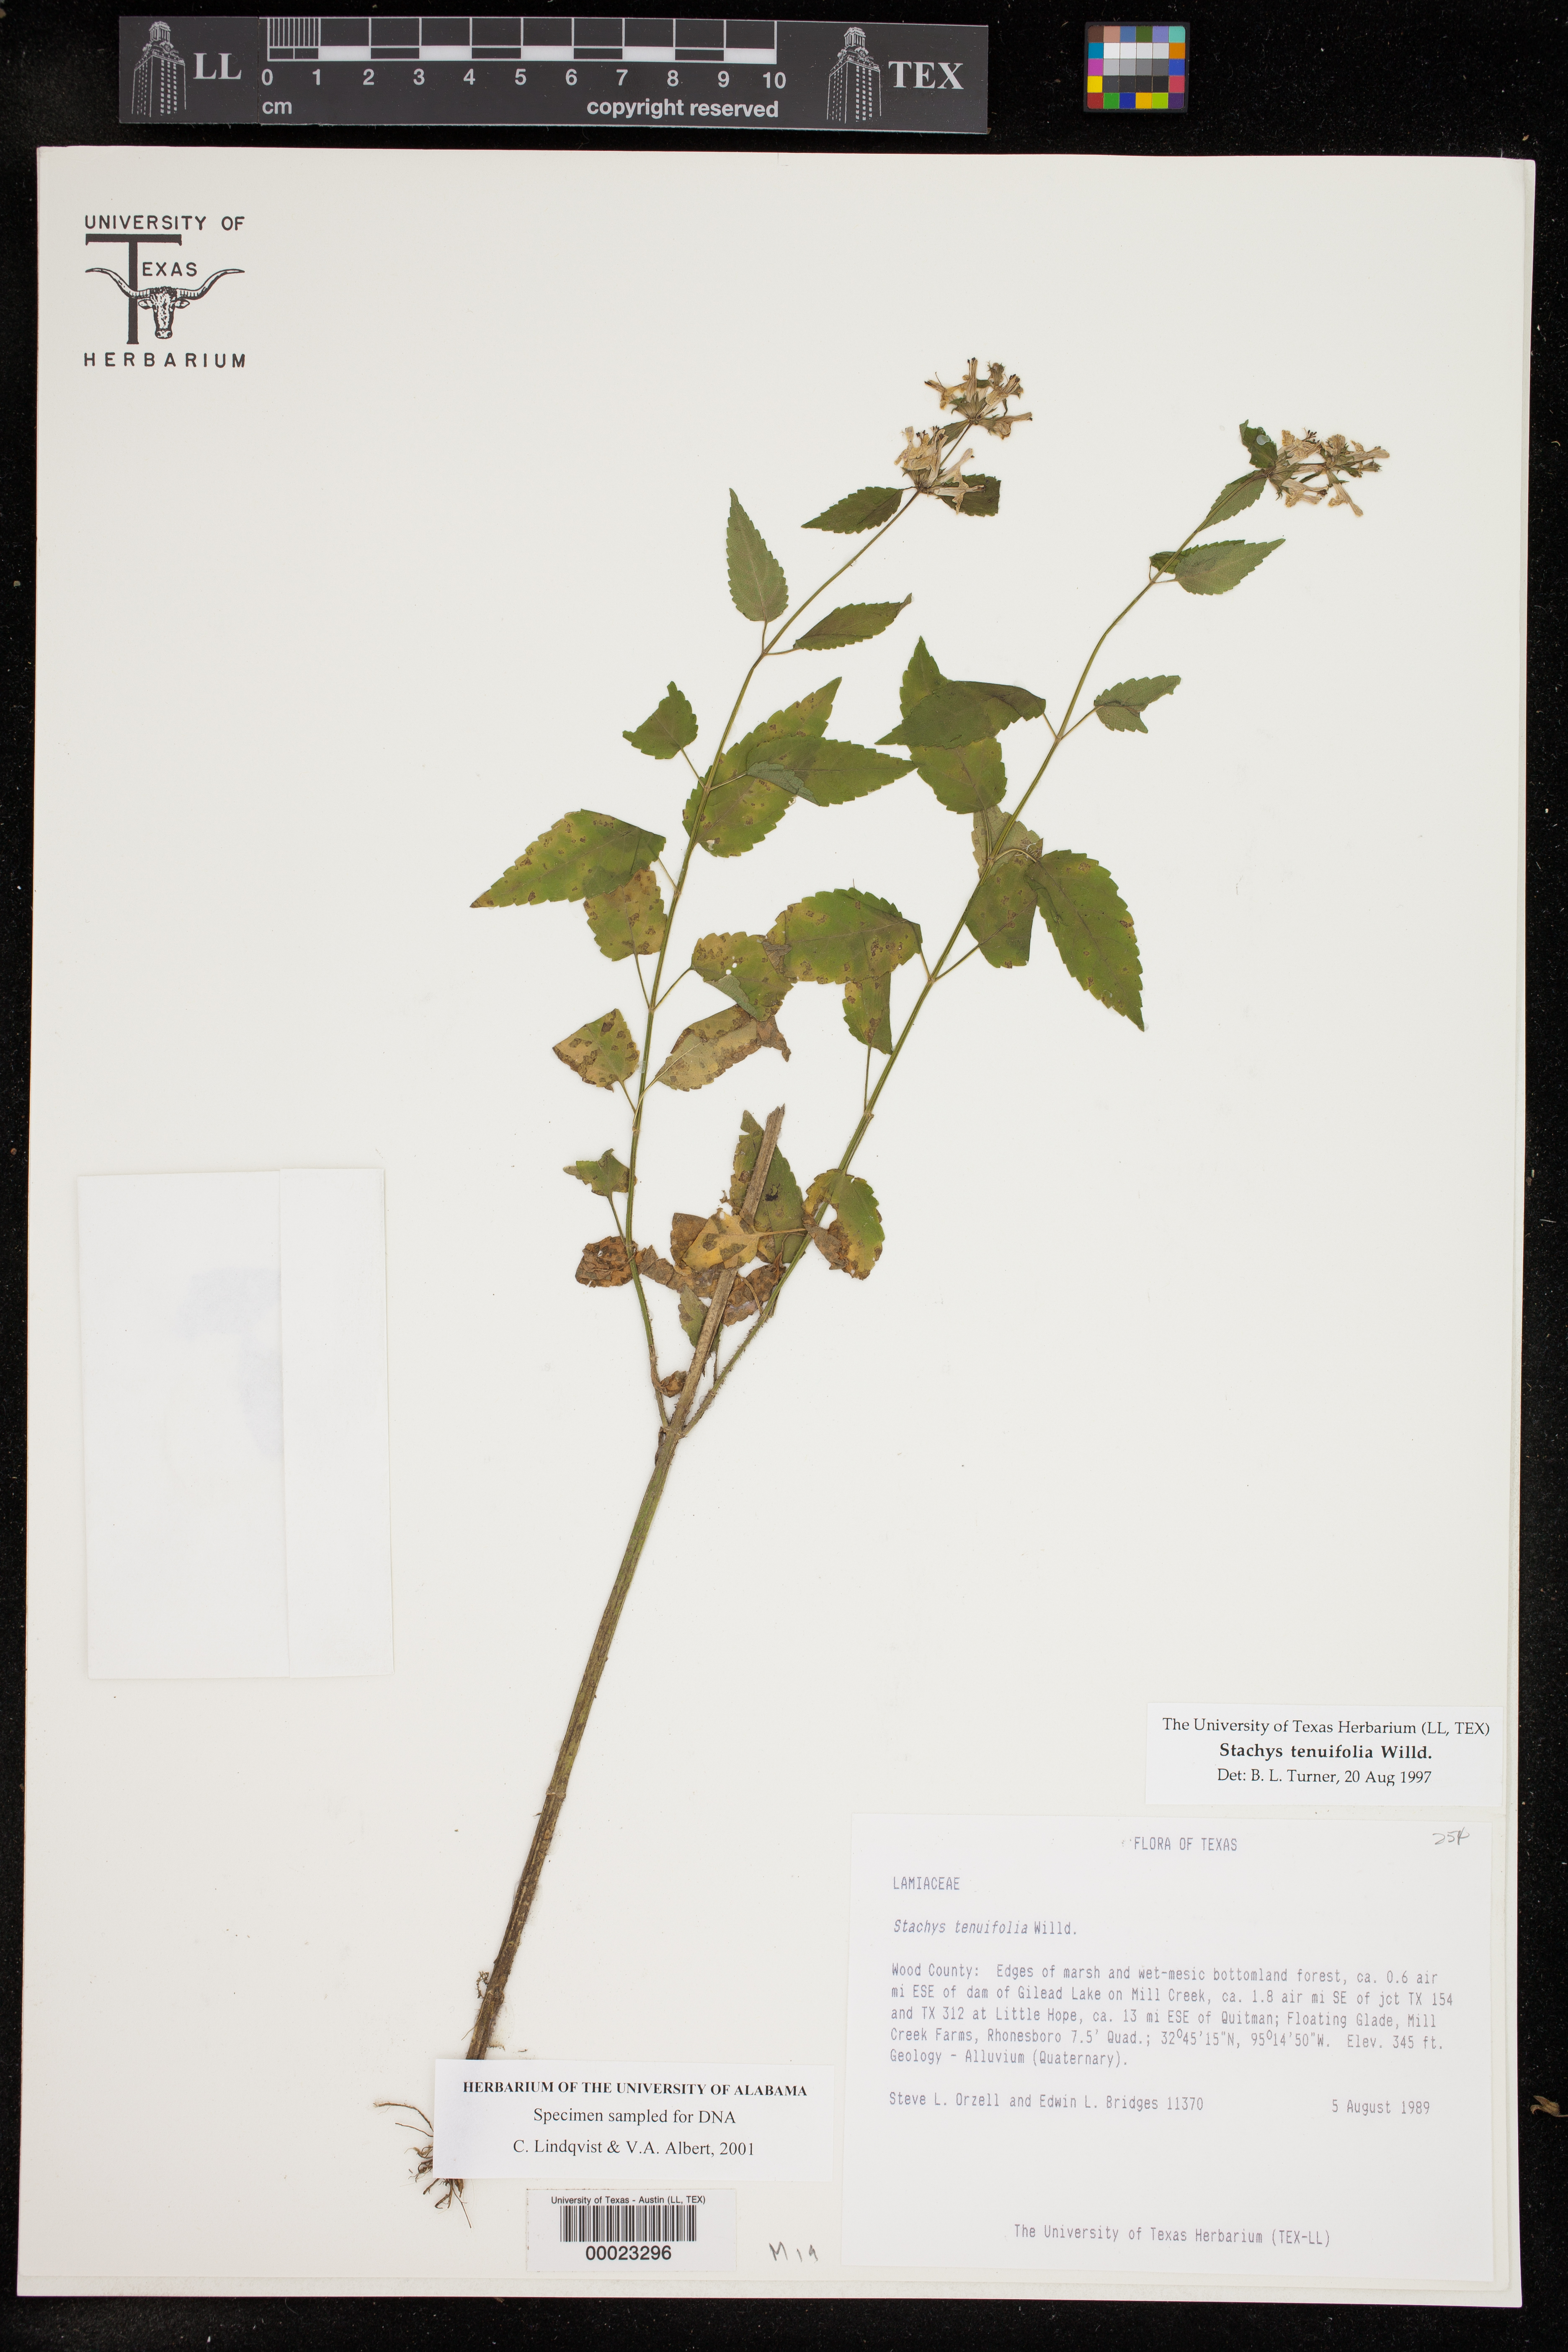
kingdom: Plantae
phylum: Tracheophyta
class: Magnoliopsida
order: Lamiales
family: Lamiaceae
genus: Stachys
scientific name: Stachys tenuifolia
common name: Smooth hedge-nettle
